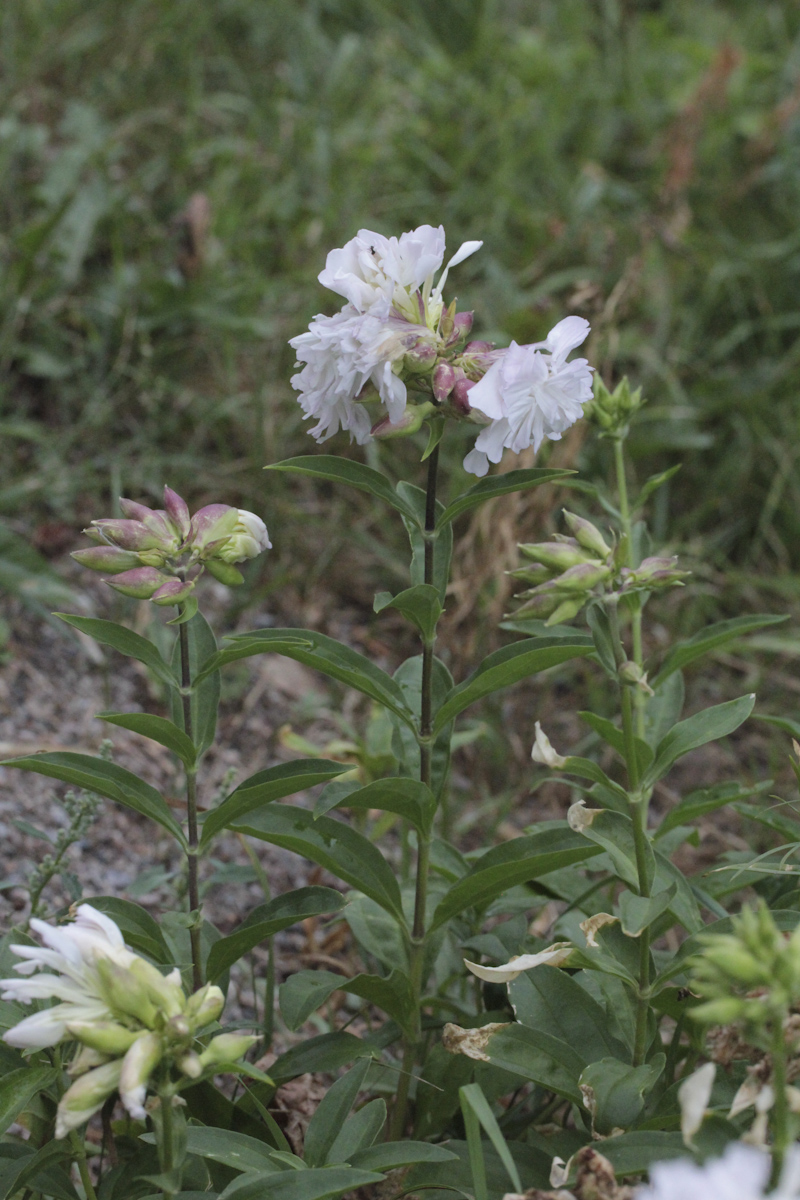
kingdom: Plantae
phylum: Tracheophyta
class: Magnoliopsida
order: Caryophyllales
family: Caryophyllaceae
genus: Saponaria
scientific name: Saponaria officinalis
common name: Soapwort
